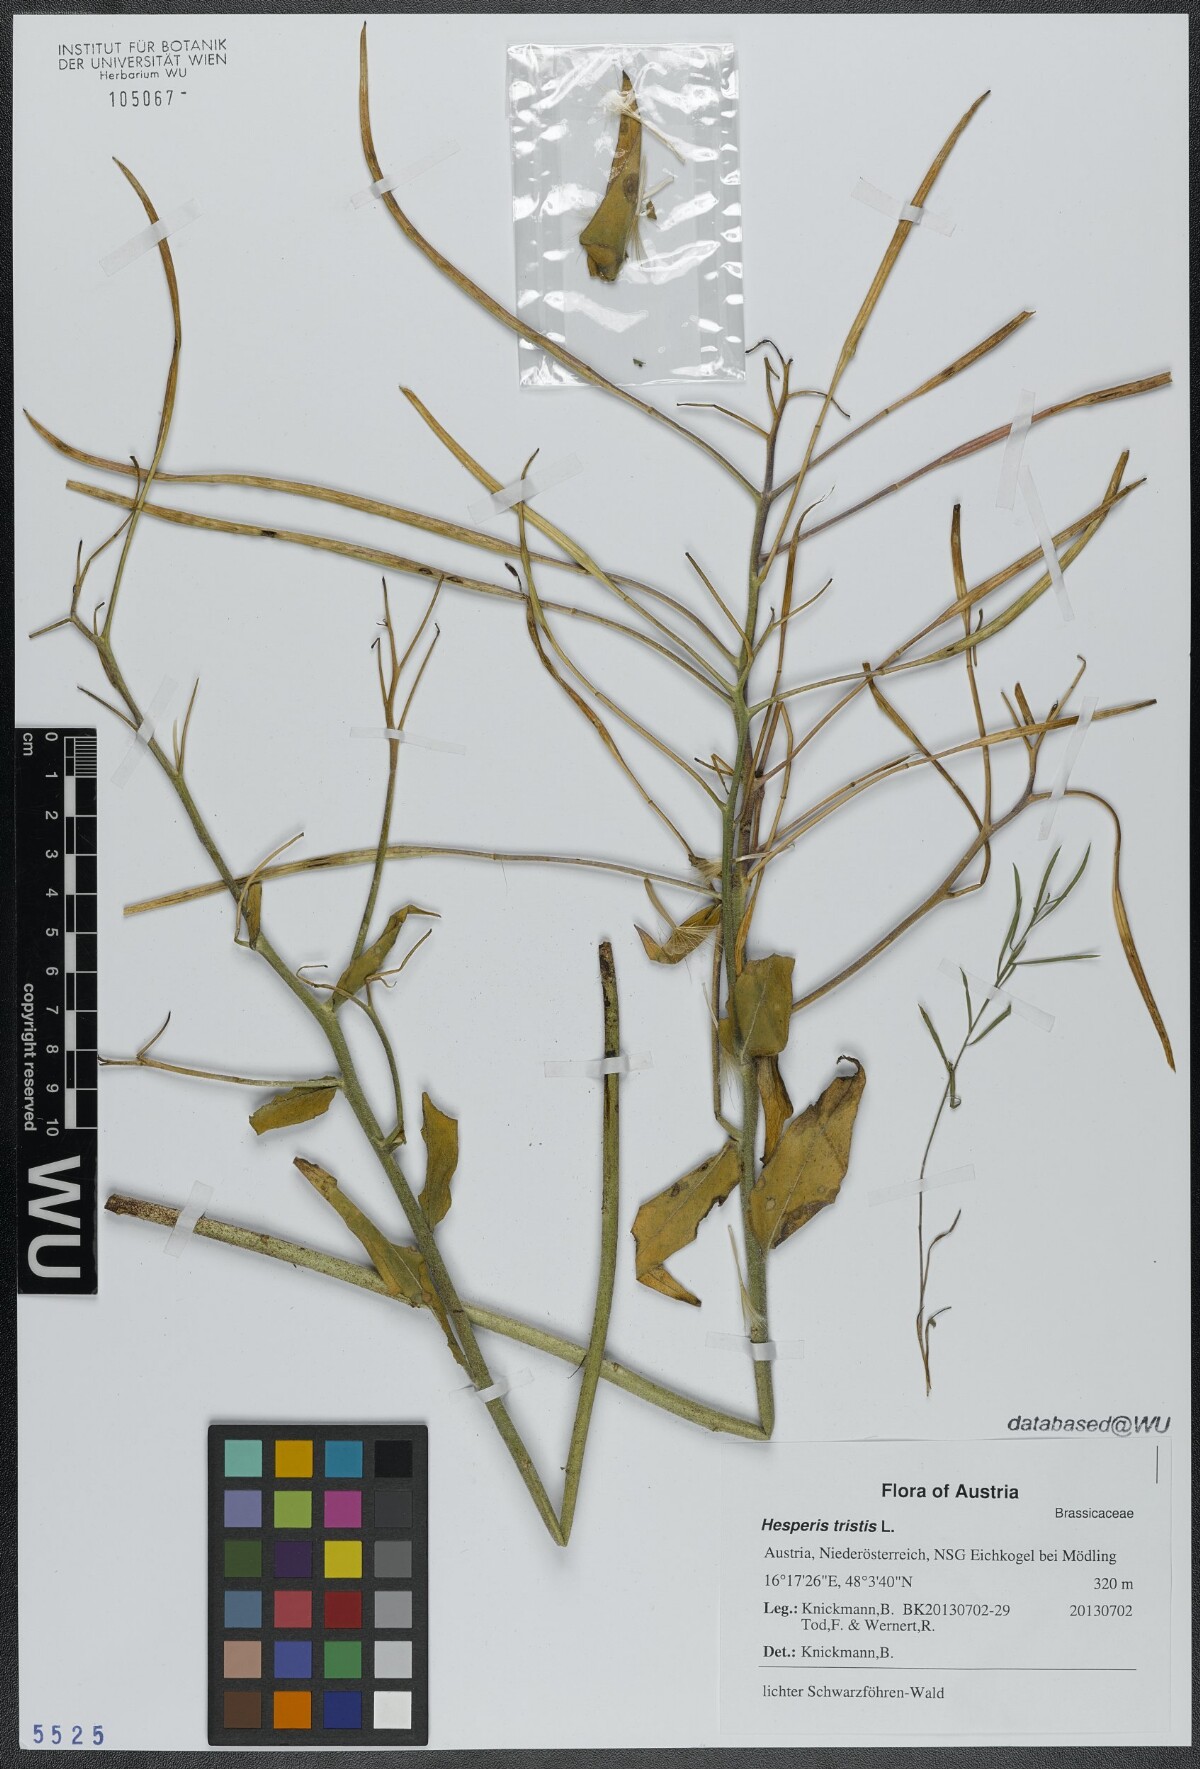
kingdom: Plantae
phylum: Tracheophyta
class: Magnoliopsida
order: Brassicales
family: Brassicaceae
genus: Hesperis
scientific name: Hesperis tristis
